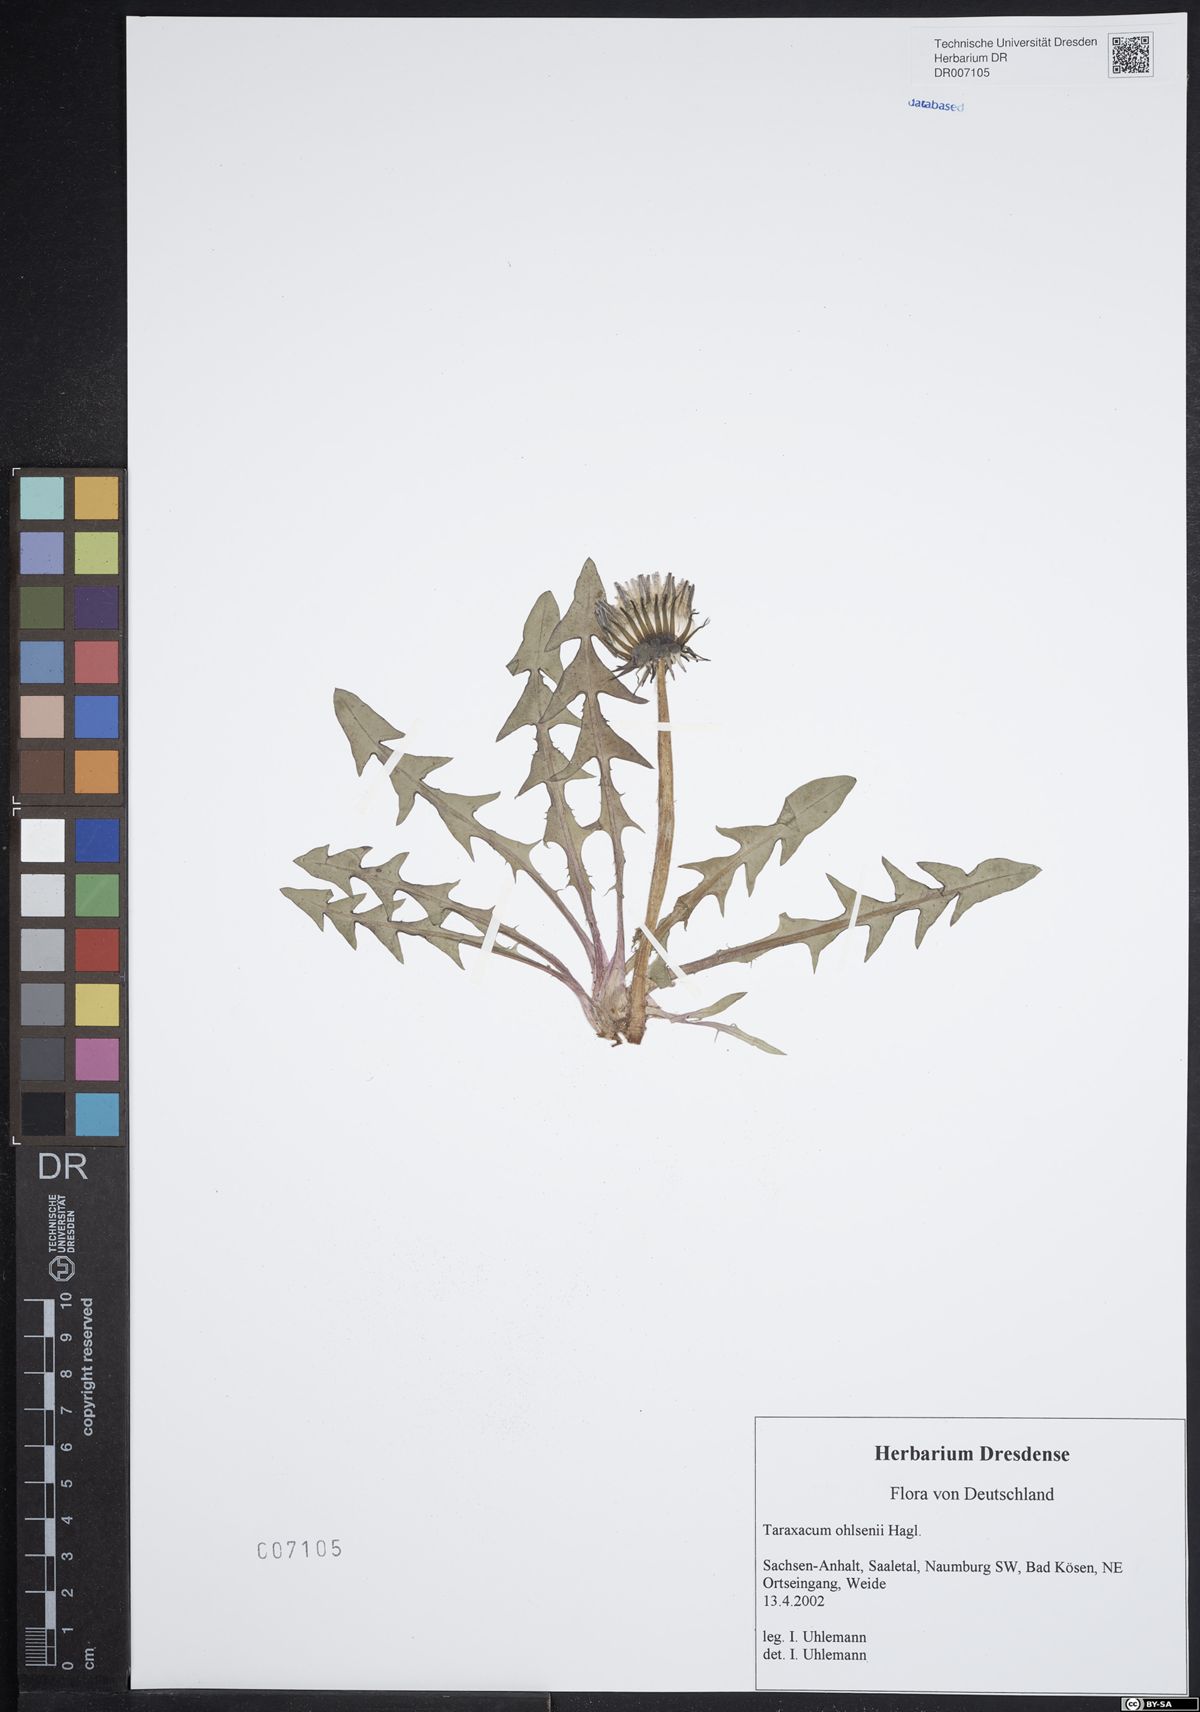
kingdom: Plantae
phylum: Tracheophyta
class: Magnoliopsida
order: Asterales
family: Asteraceae
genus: Taraxacum
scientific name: Taraxacum ohlsenii
